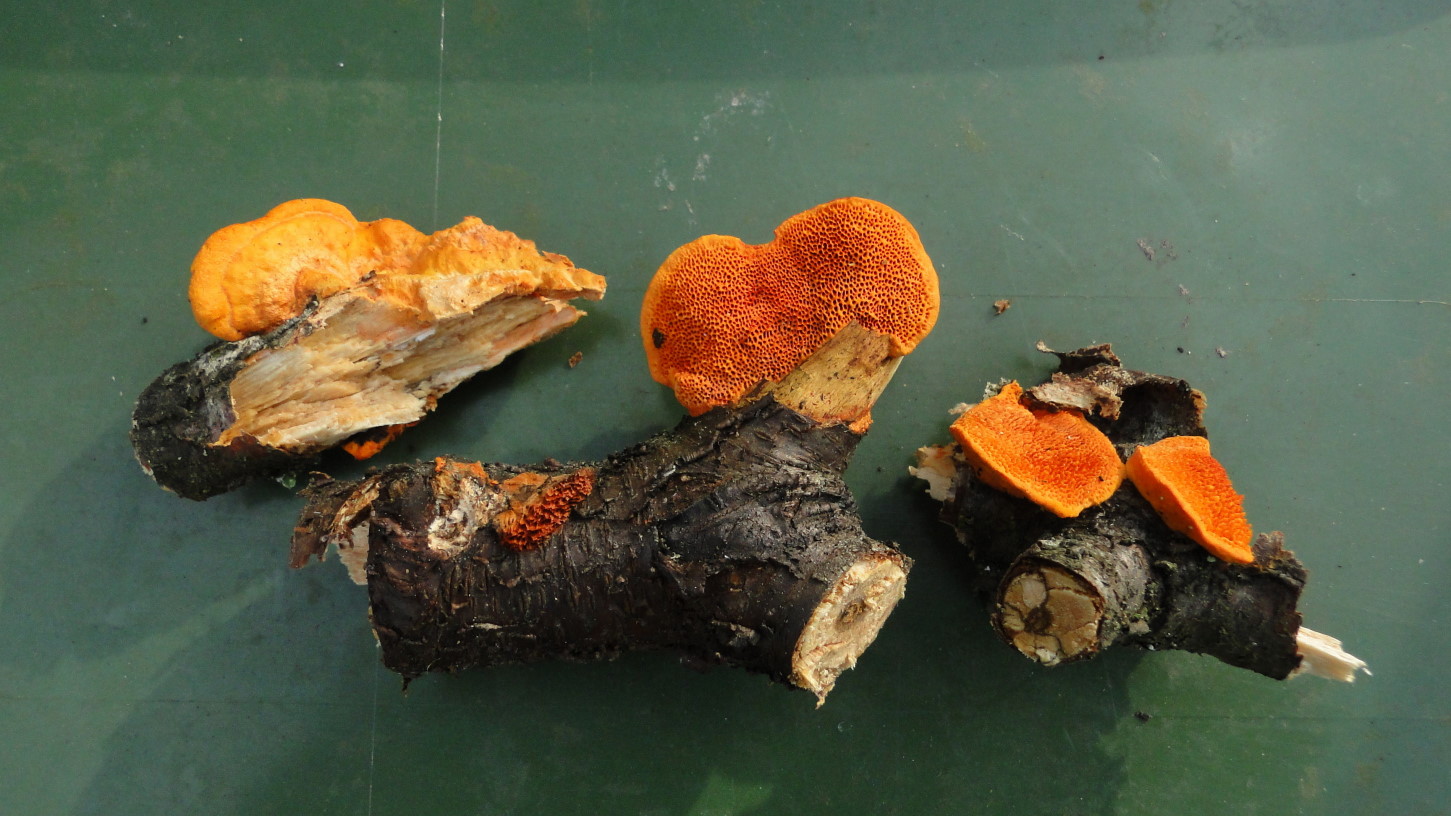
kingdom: Fungi
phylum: Basidiomycota
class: Agaricomycetes
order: Polyporales
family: Polyporaceae
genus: Trametes
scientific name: Trametes cinnabarina
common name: cinnoberporesvamp
